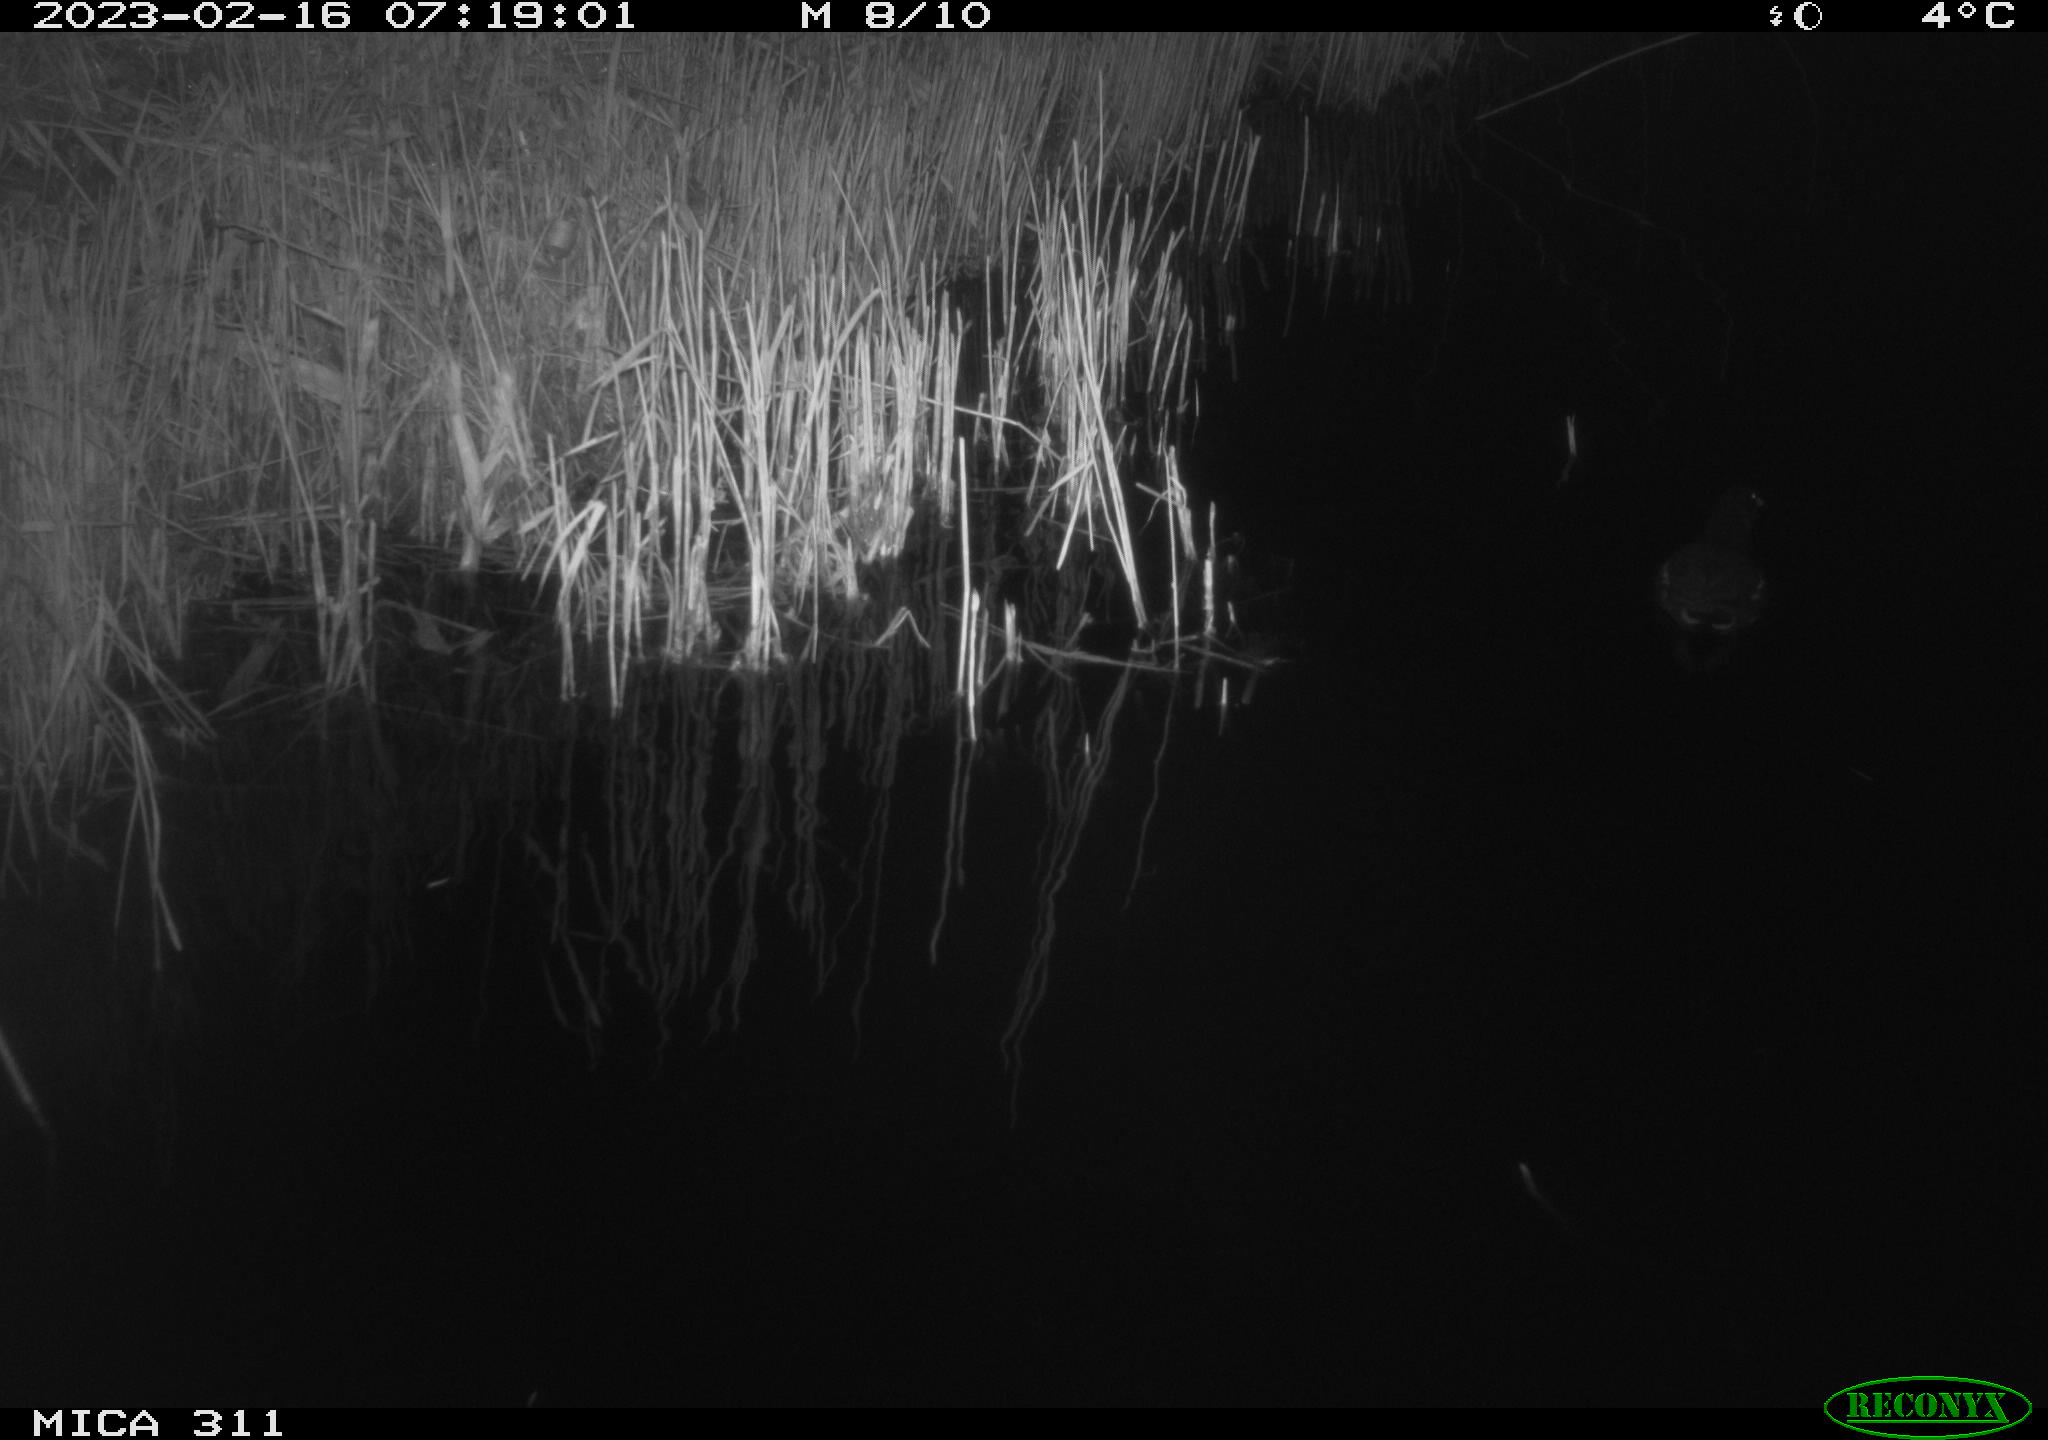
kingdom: Animalia
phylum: Chordata
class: Aves
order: Gruiformes
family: Rallidae
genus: Gallinula
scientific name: Gallinula chloropus
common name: Common moorhen
